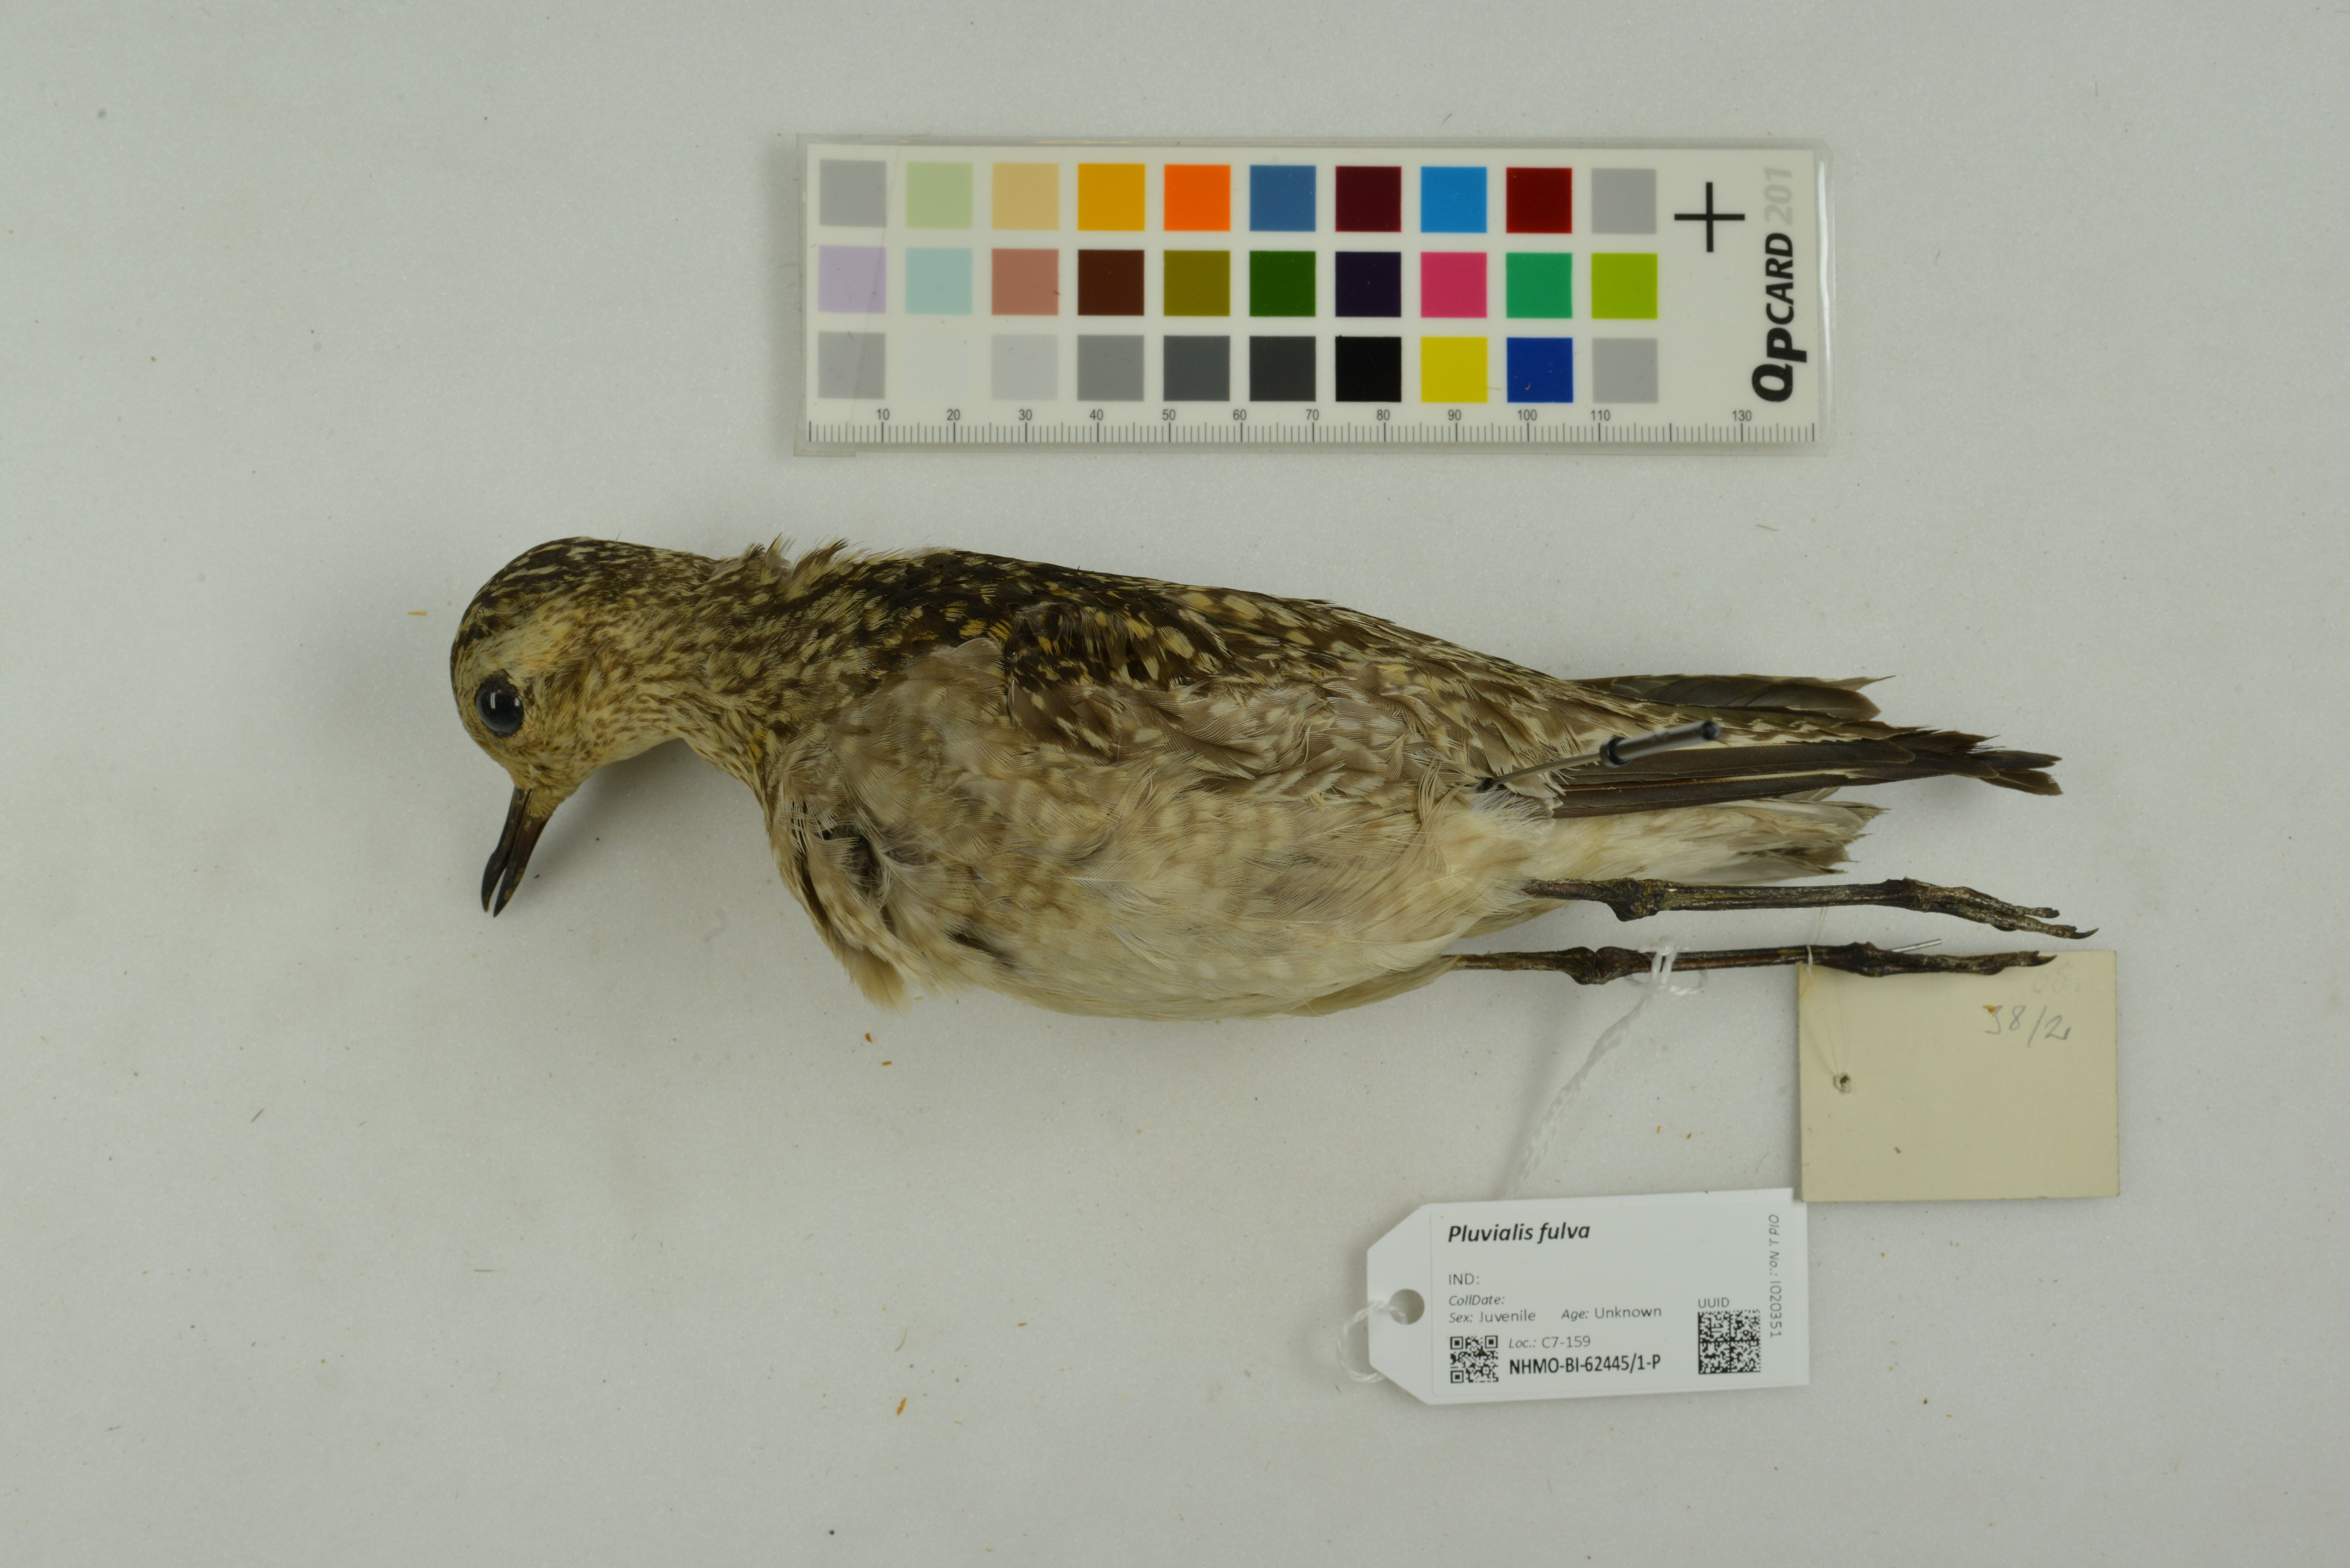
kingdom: Animalia
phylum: Chordata
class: Aves
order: Charadriiformes
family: Charadriidae
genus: Pluvialis
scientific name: Pluvialis fulva
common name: Pacific golden plover
